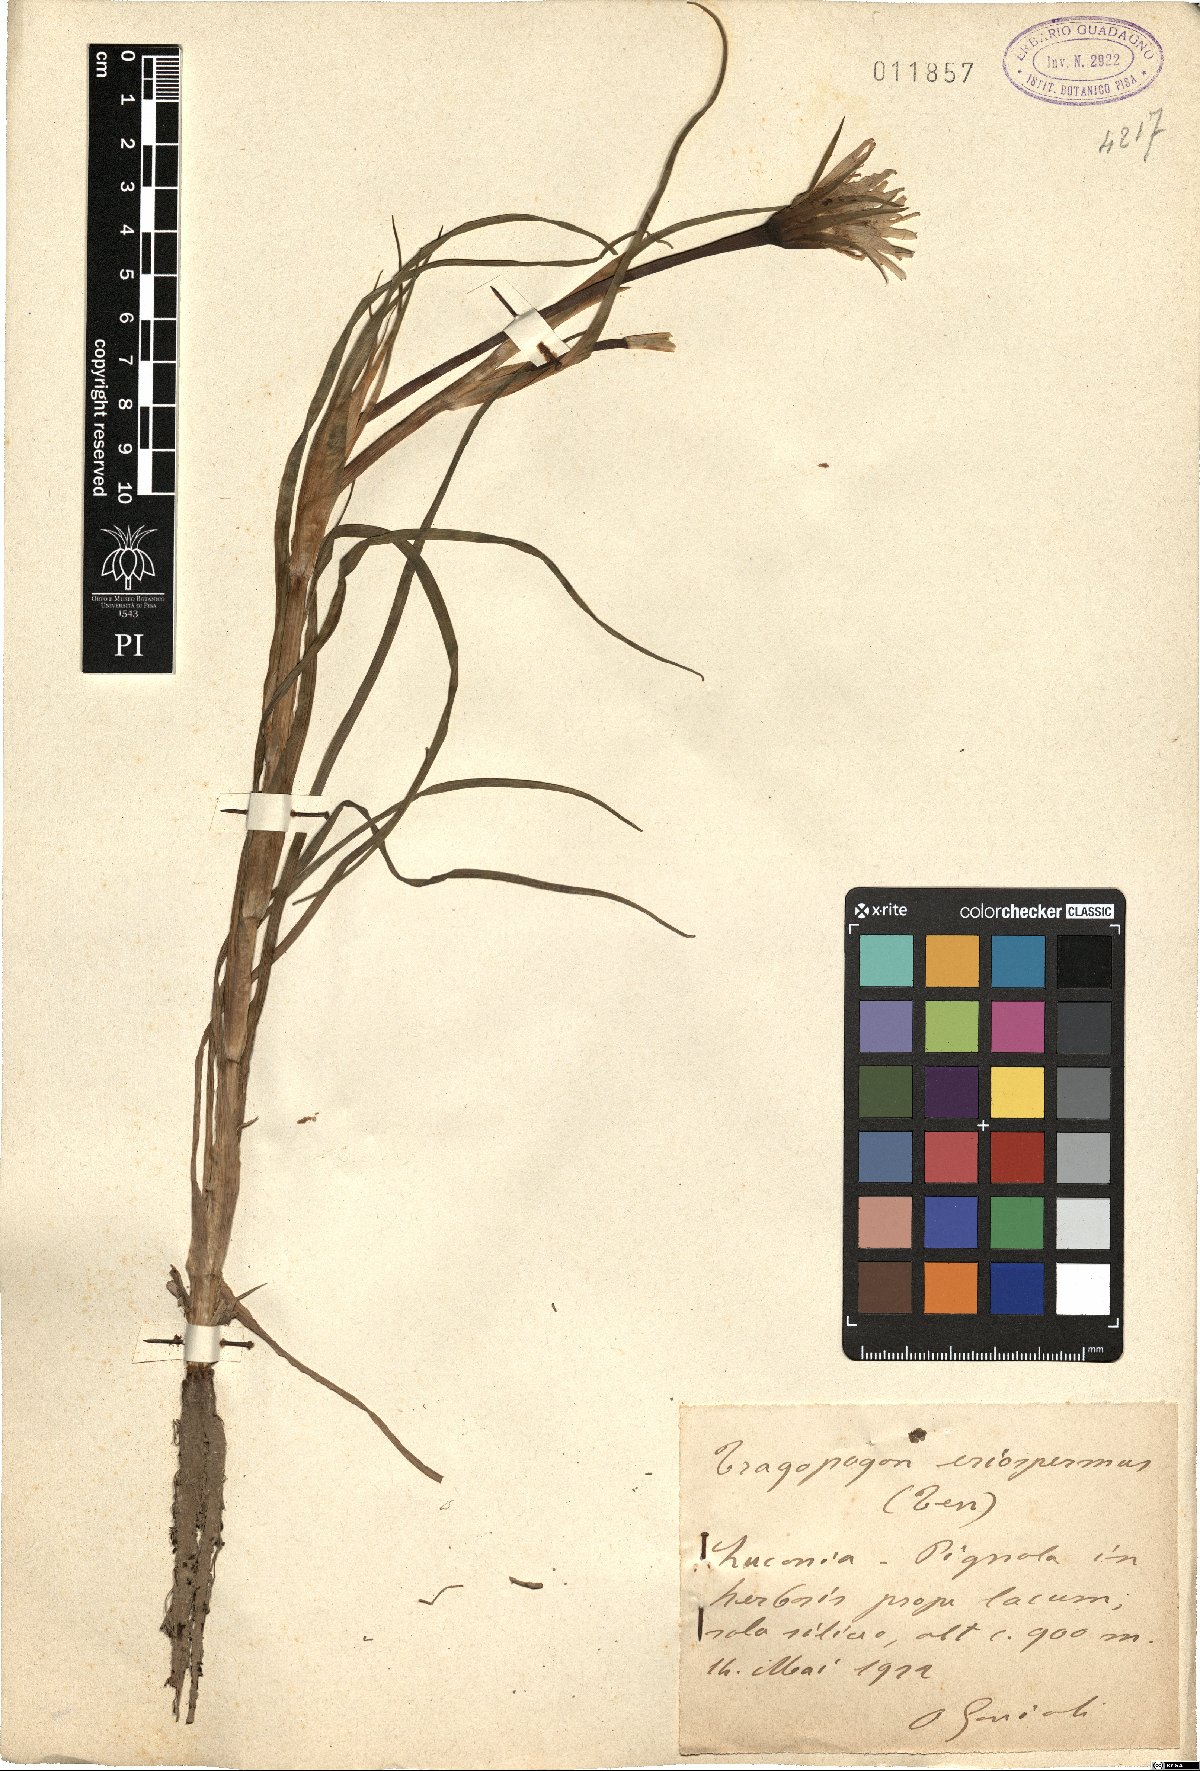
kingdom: Plantae
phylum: Tracheophyta
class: Magnoliopsida
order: Asterales
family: Asteraceae
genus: Tragopogon
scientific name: Tragopogon porrifolius
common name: Salsify
